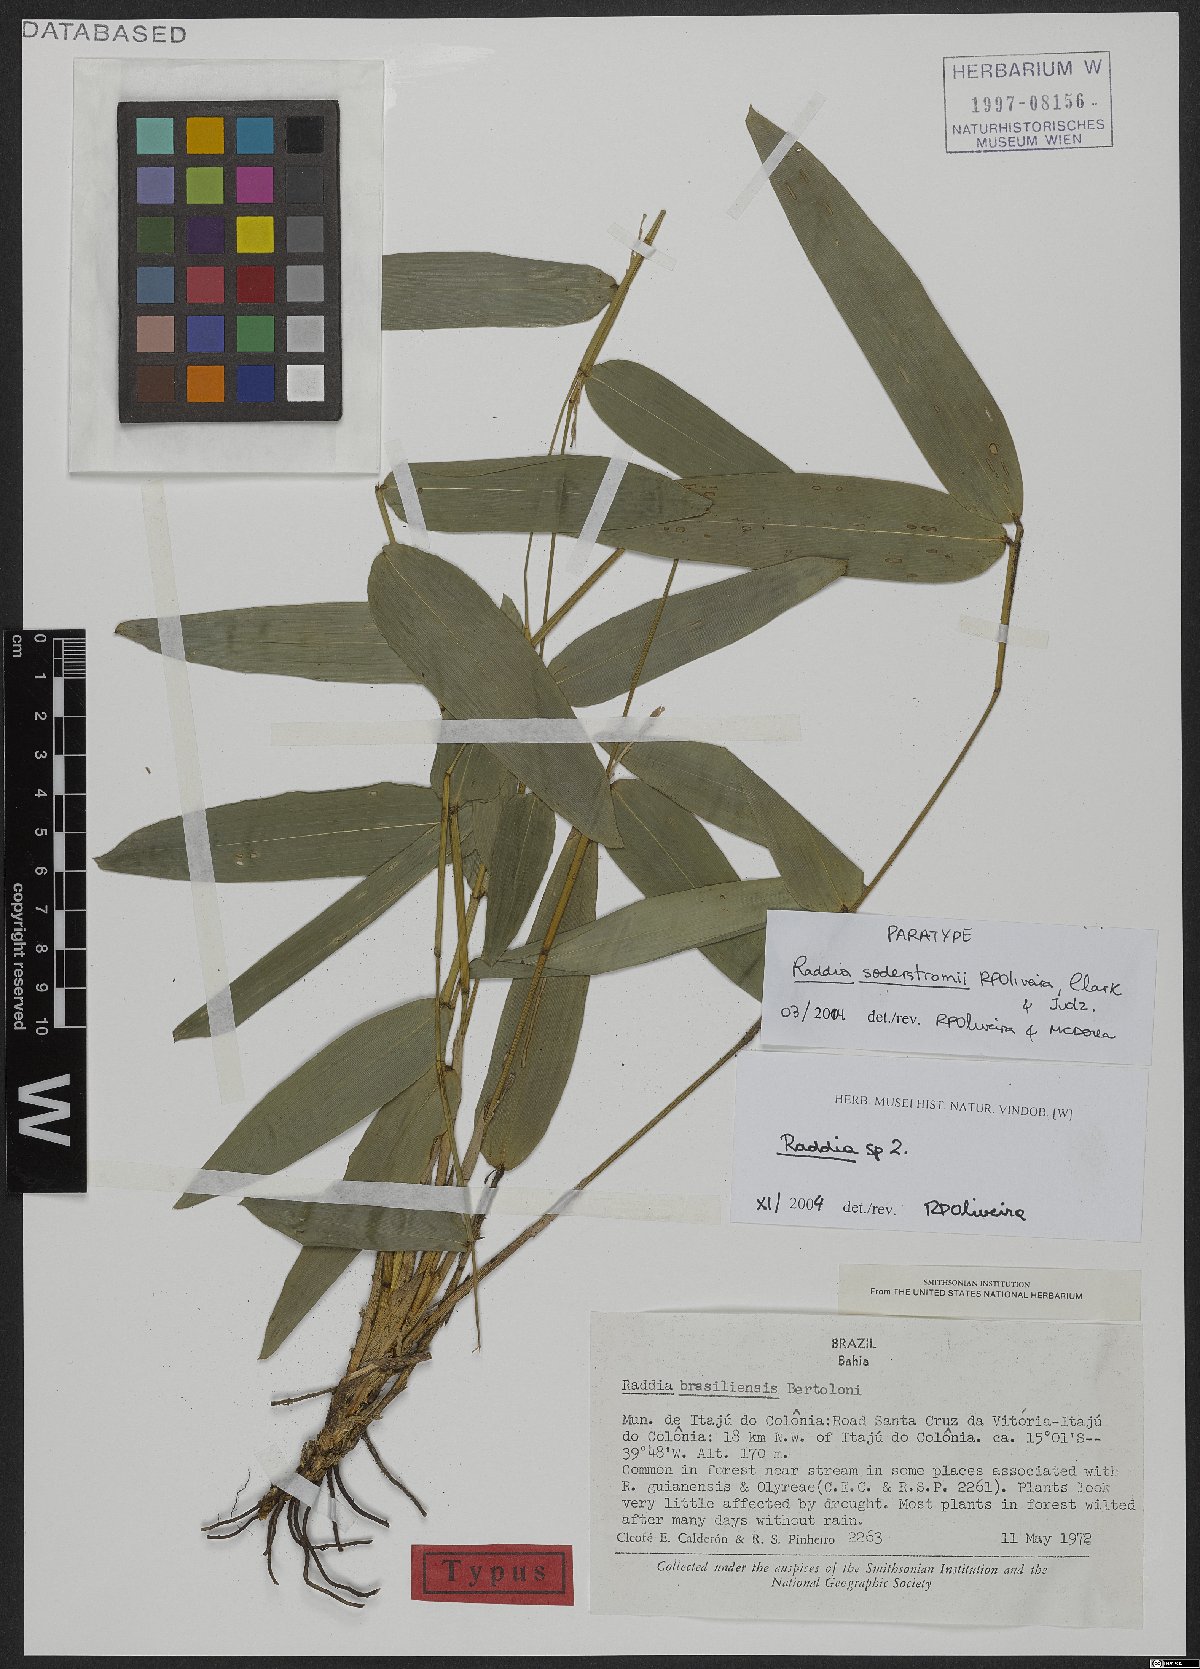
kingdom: Plantae
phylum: Tracheophyta
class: Liliopsida
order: Poales
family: Poaceae
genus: Raddia
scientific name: Raddia soderstromii
